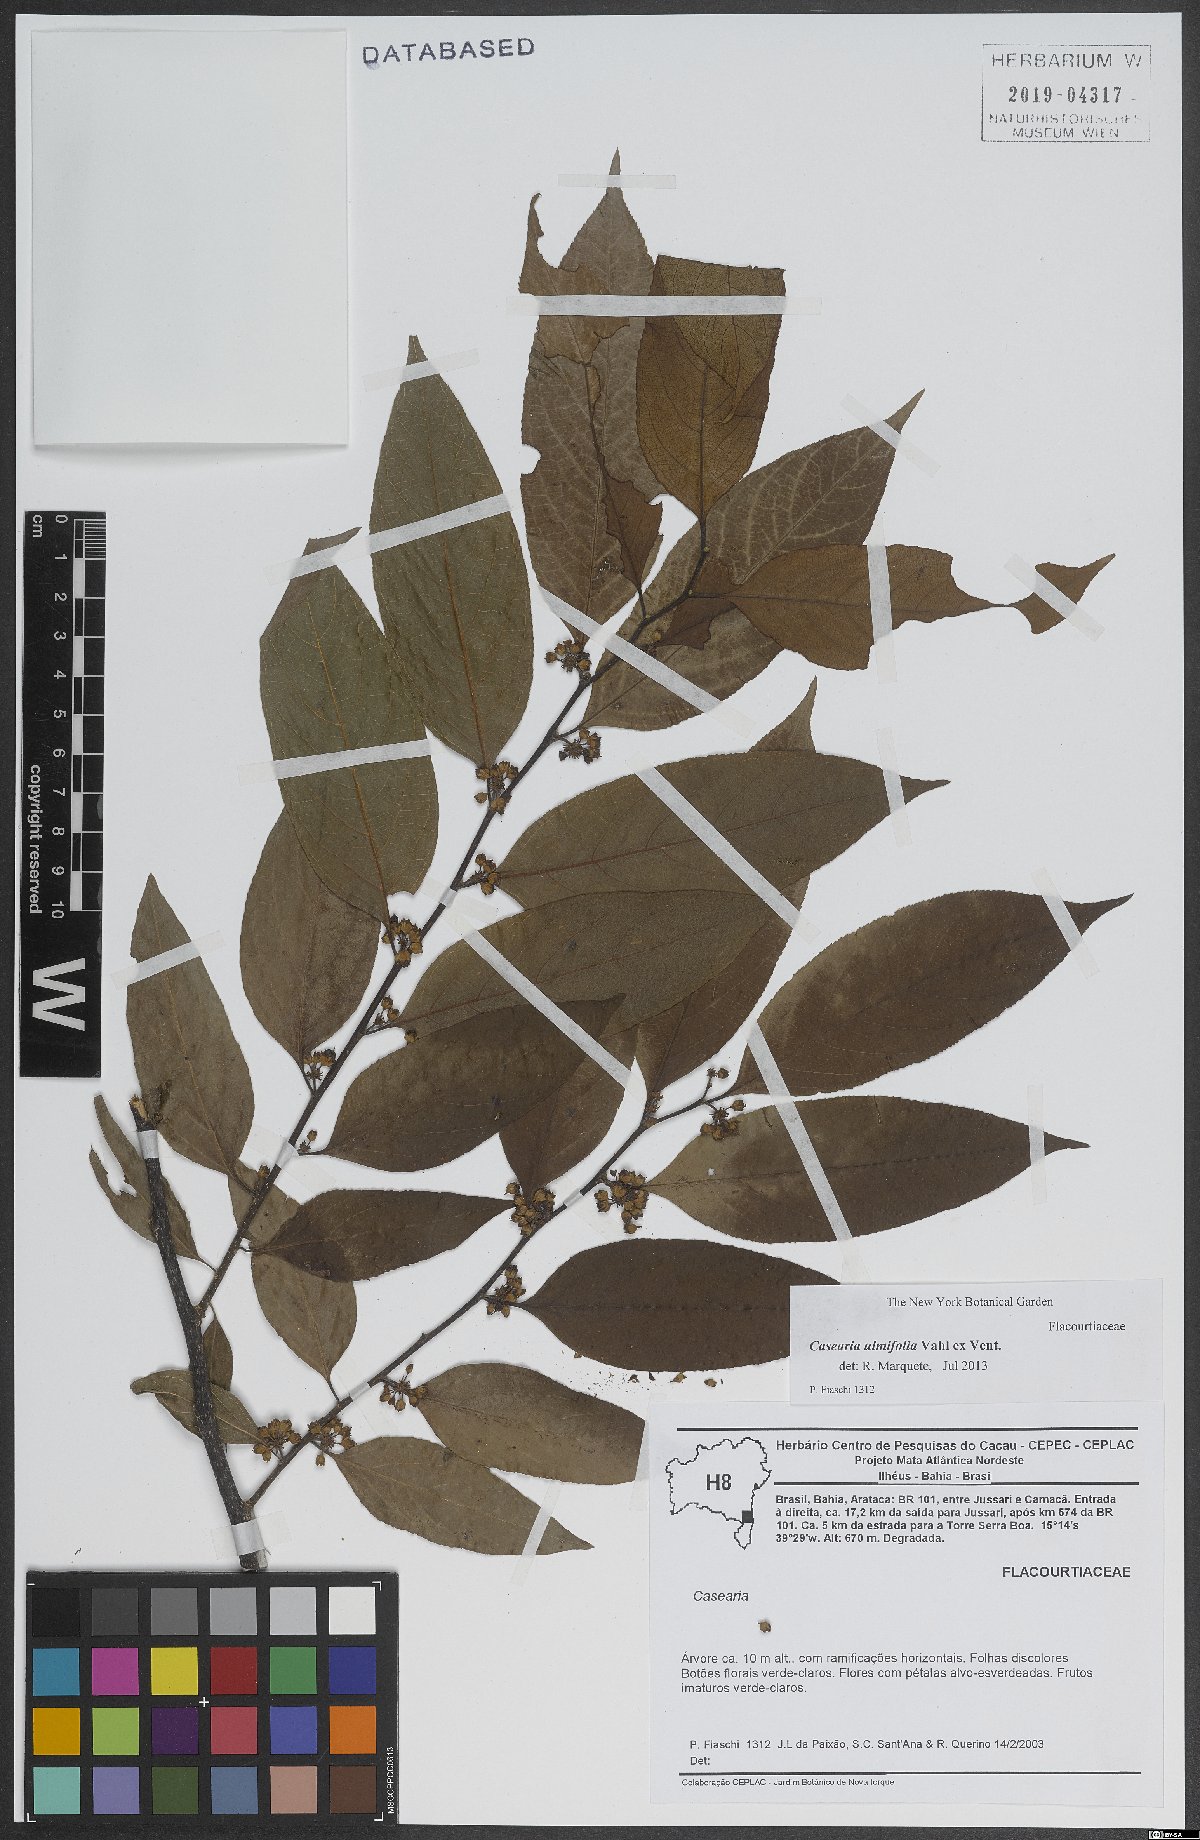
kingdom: Plantae
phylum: Tracheophyta
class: Magnoliopsida
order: Malpighiales
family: Salicaceae
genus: Casearia
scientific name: Casearia ulmifolia
